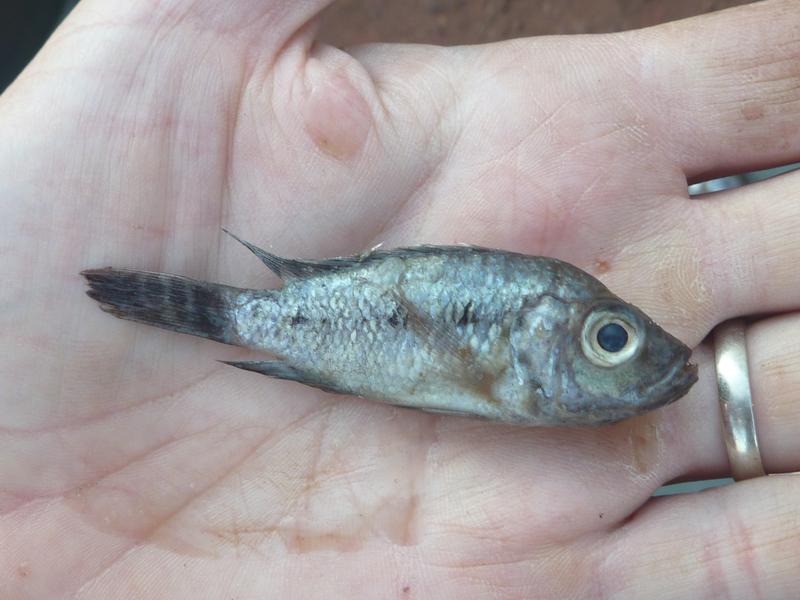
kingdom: Animalia
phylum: Chordata
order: Perciformes
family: Cichlidae
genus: Oreochromis
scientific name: Oreochromis korogwe
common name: Korogwe tilapia
